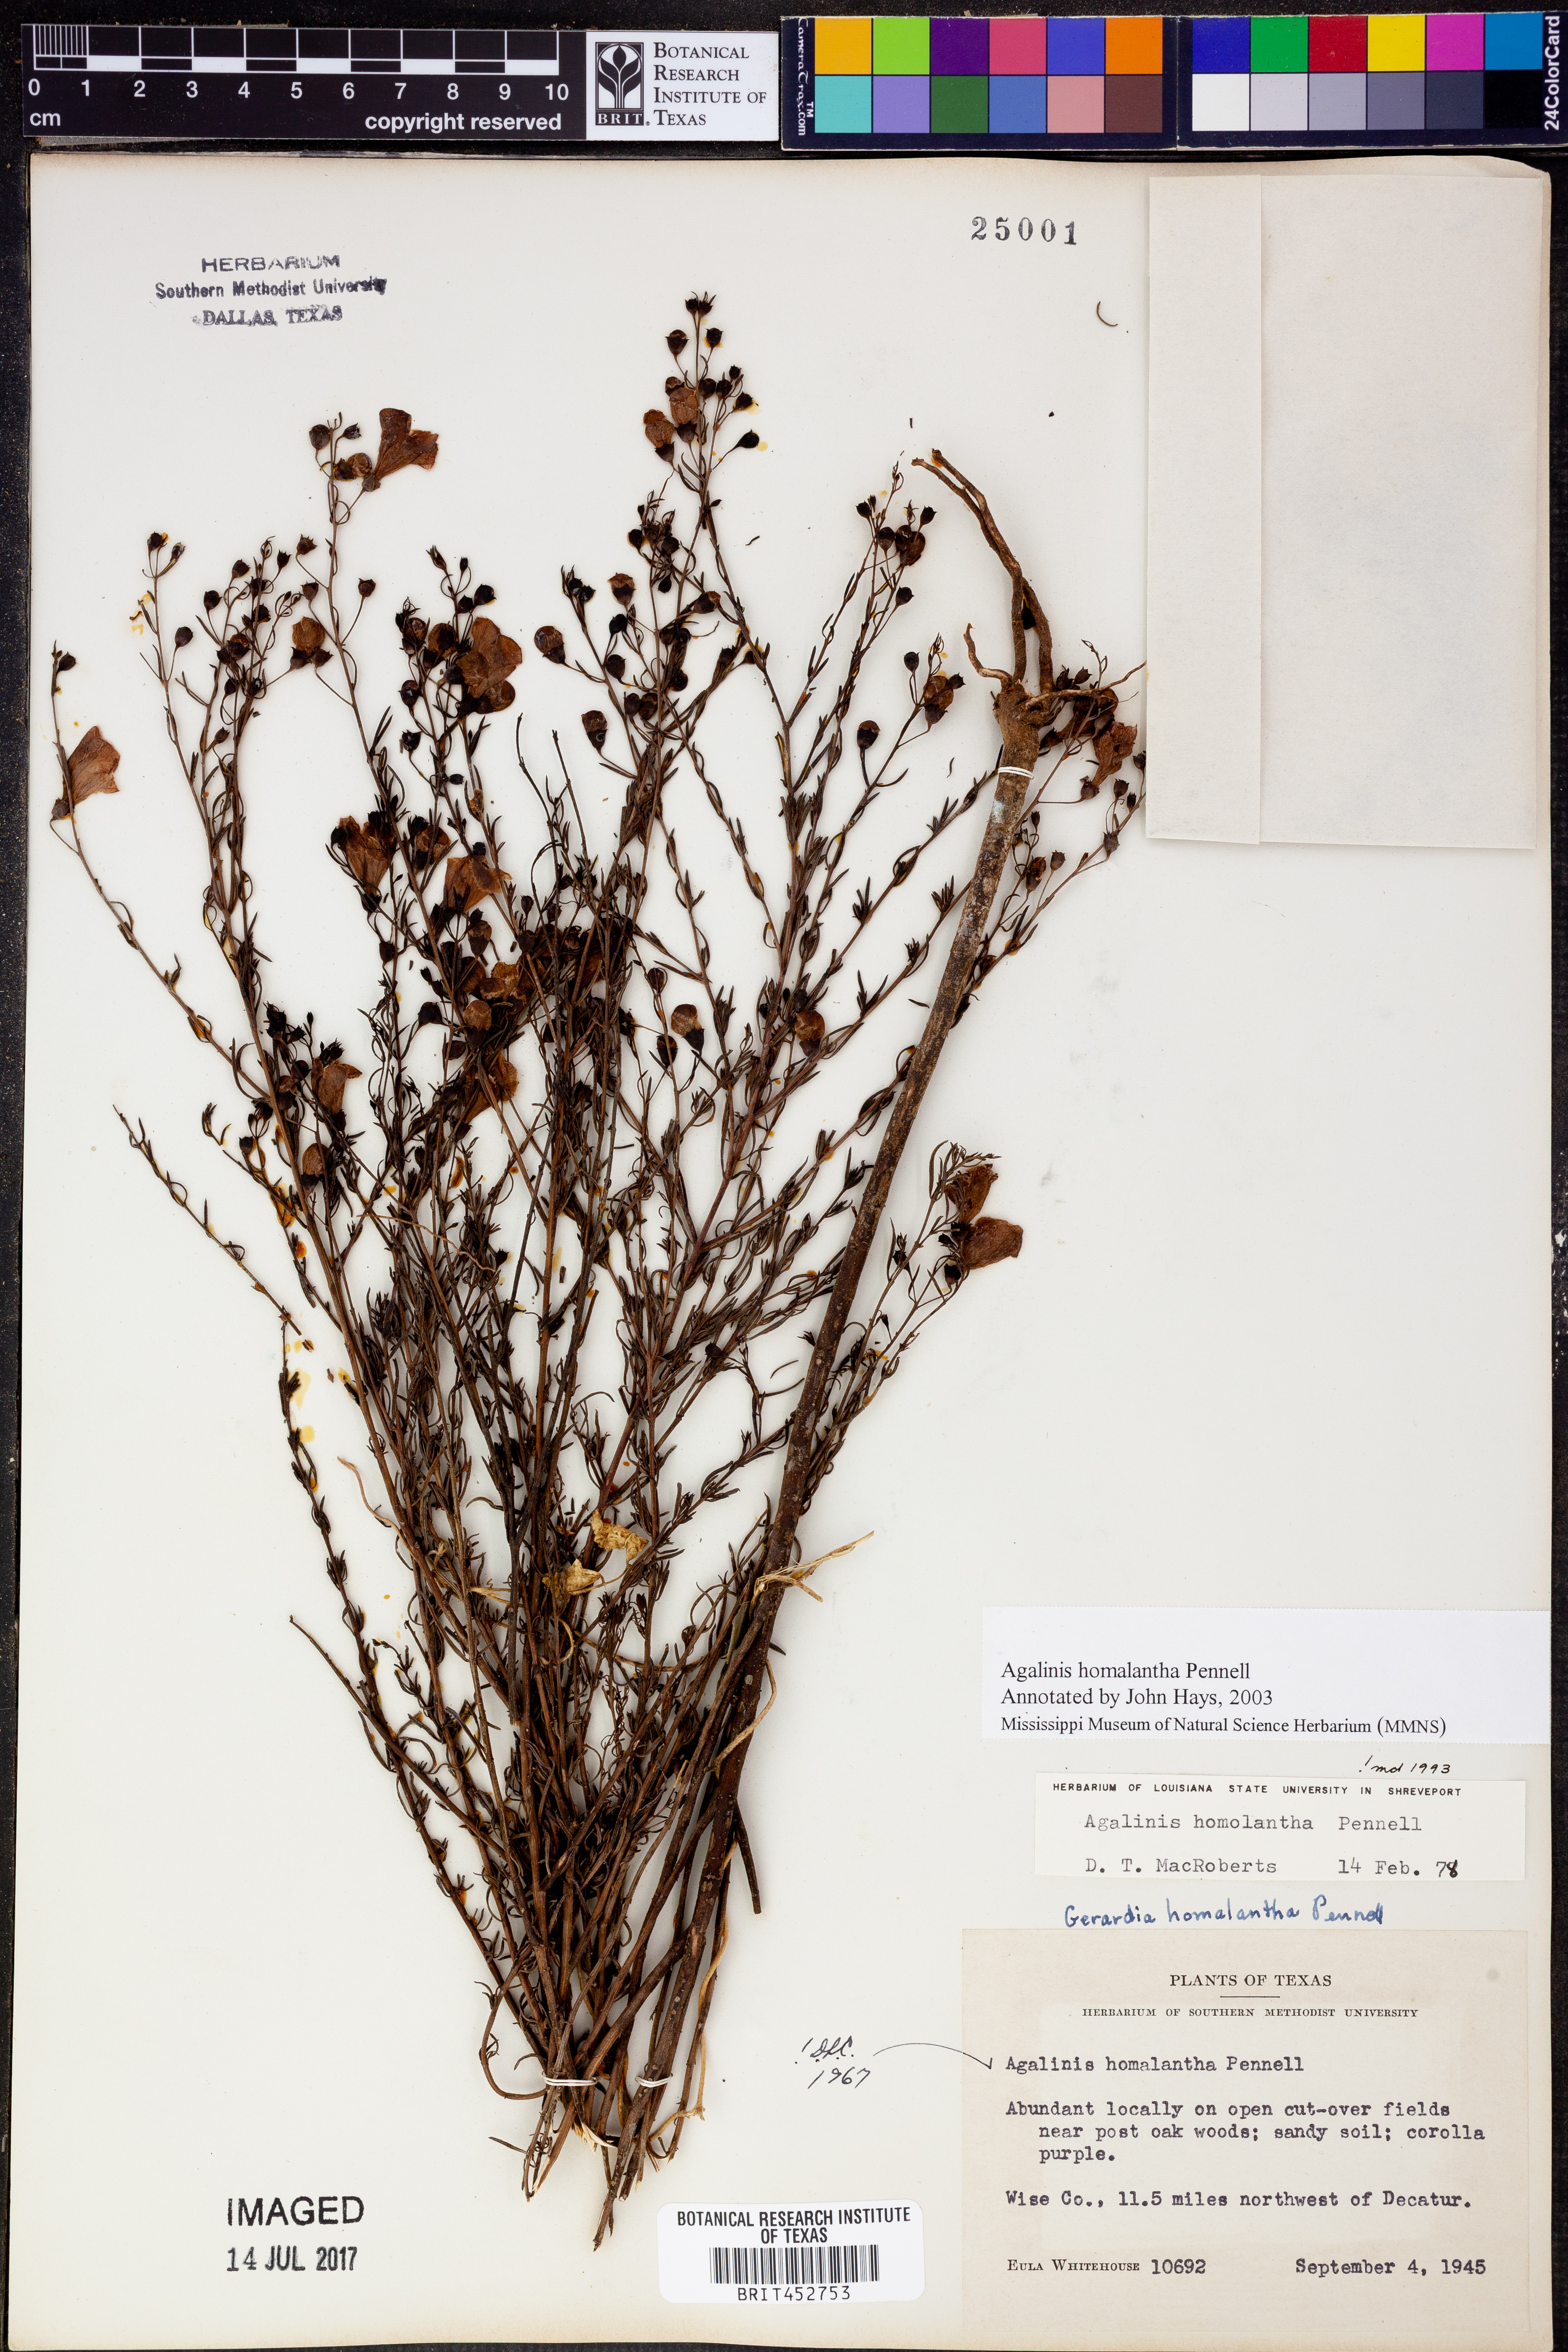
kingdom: Plantae
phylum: Tracheophyta
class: Magnoliopsida
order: Lamiales
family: Orobanchaceae
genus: Agalinis
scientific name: Agalinis homalantha
